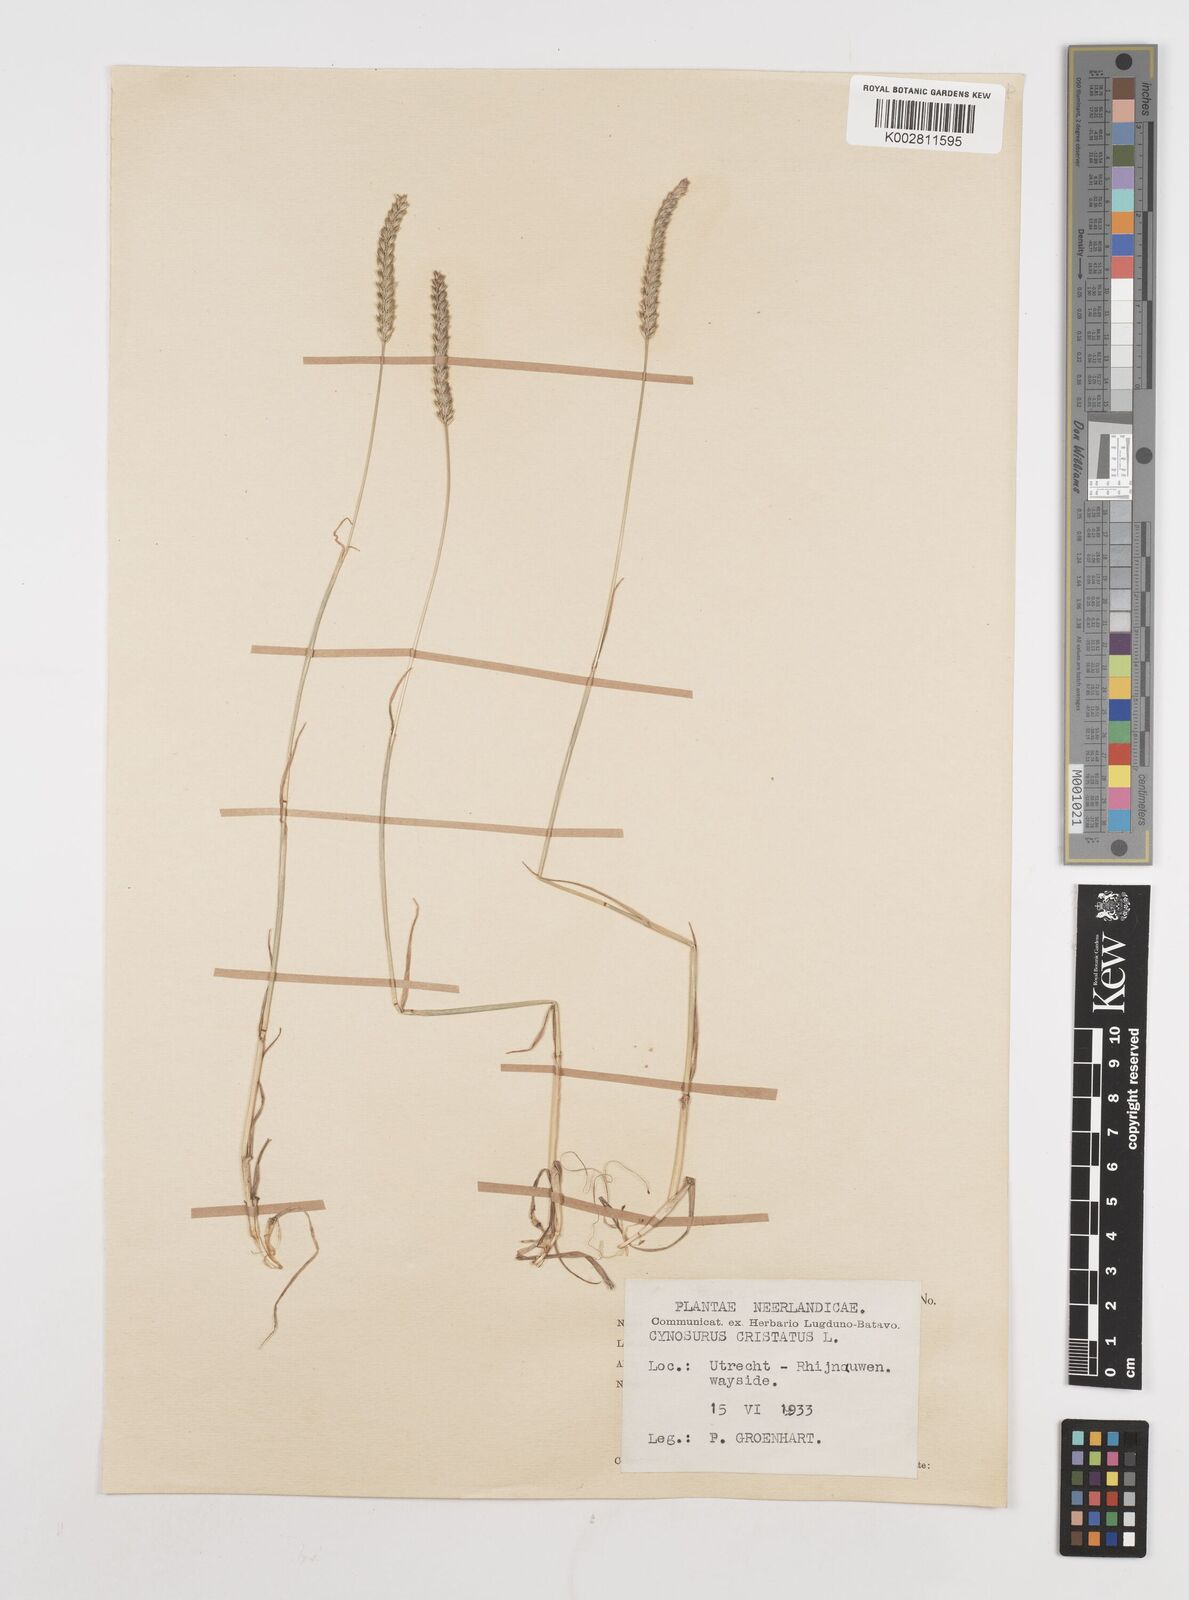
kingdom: Plantae
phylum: Tracheophyta
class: Liliopsida
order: Poales
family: Poaceae
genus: Cynosurus
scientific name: Cynosurus cristatus
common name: Crested dog's-tail
